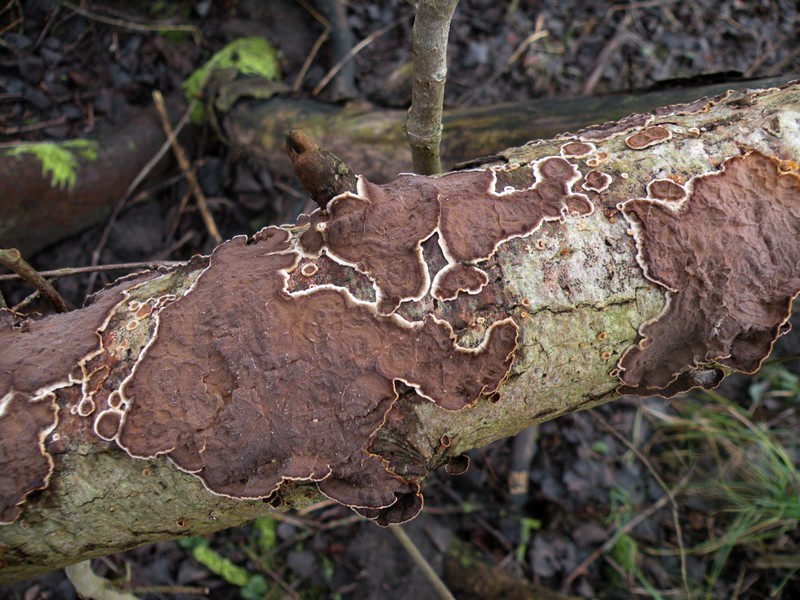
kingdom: Fungi
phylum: Basidiomycota
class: Agaricomycetes
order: Hymenochaetales
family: Hymenochaetaceae
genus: Hydnoporia
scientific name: Hydnoporia tabacina
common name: tobaksbrun ruslædersvamp
